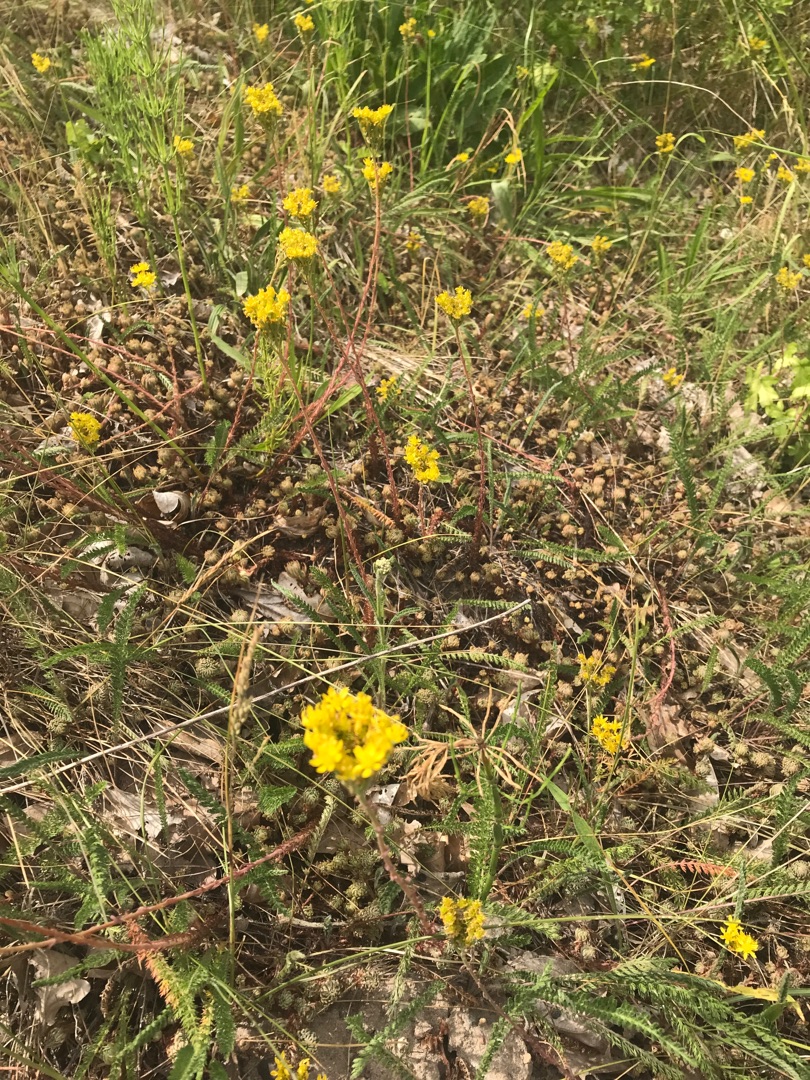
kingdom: Plantae
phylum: Tracheophyta
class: Magnoliopsida
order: Saxifragales
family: Crassulaceae
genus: Petrosedum
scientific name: Petrosedum forsterianum
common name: Fransk stenurt
